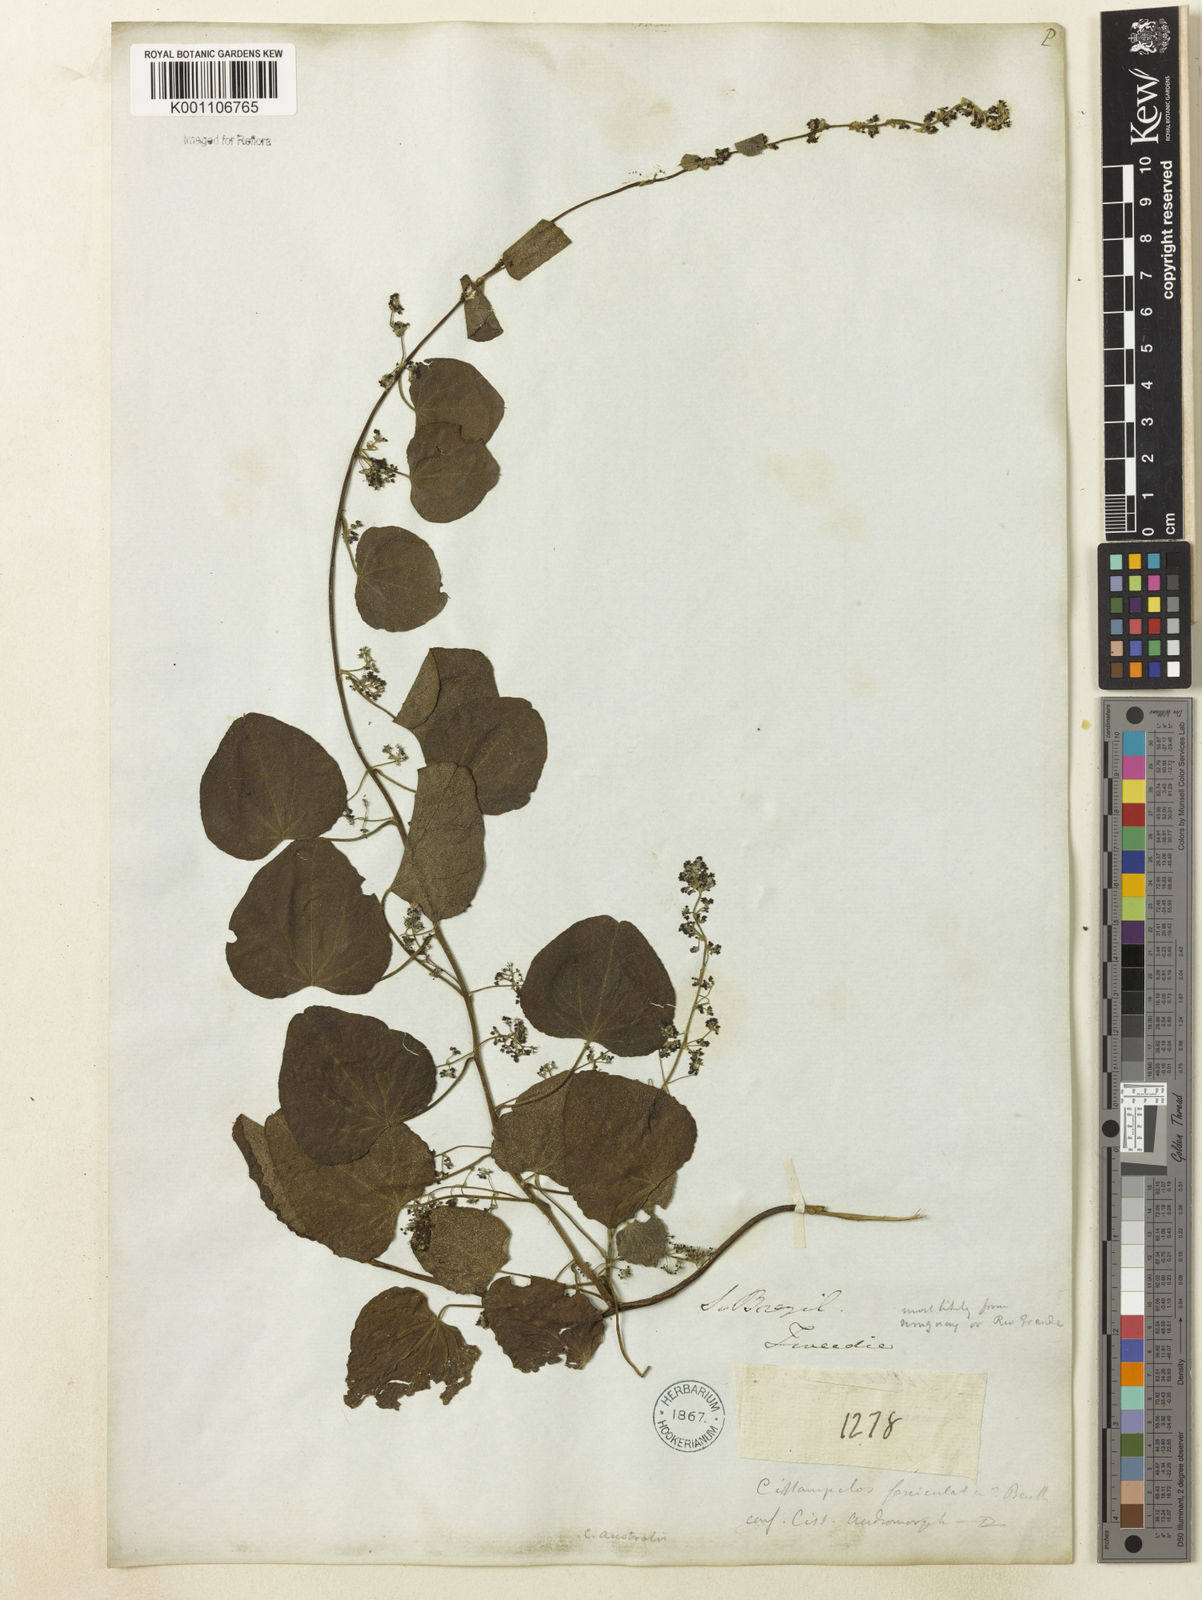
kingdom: Plantae
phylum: Tracheophyta
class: Magnoliopsida
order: Ranunculales
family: Menispermaceae
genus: Cissampelos
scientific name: Cissampelos pareira
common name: Velvetleaf
